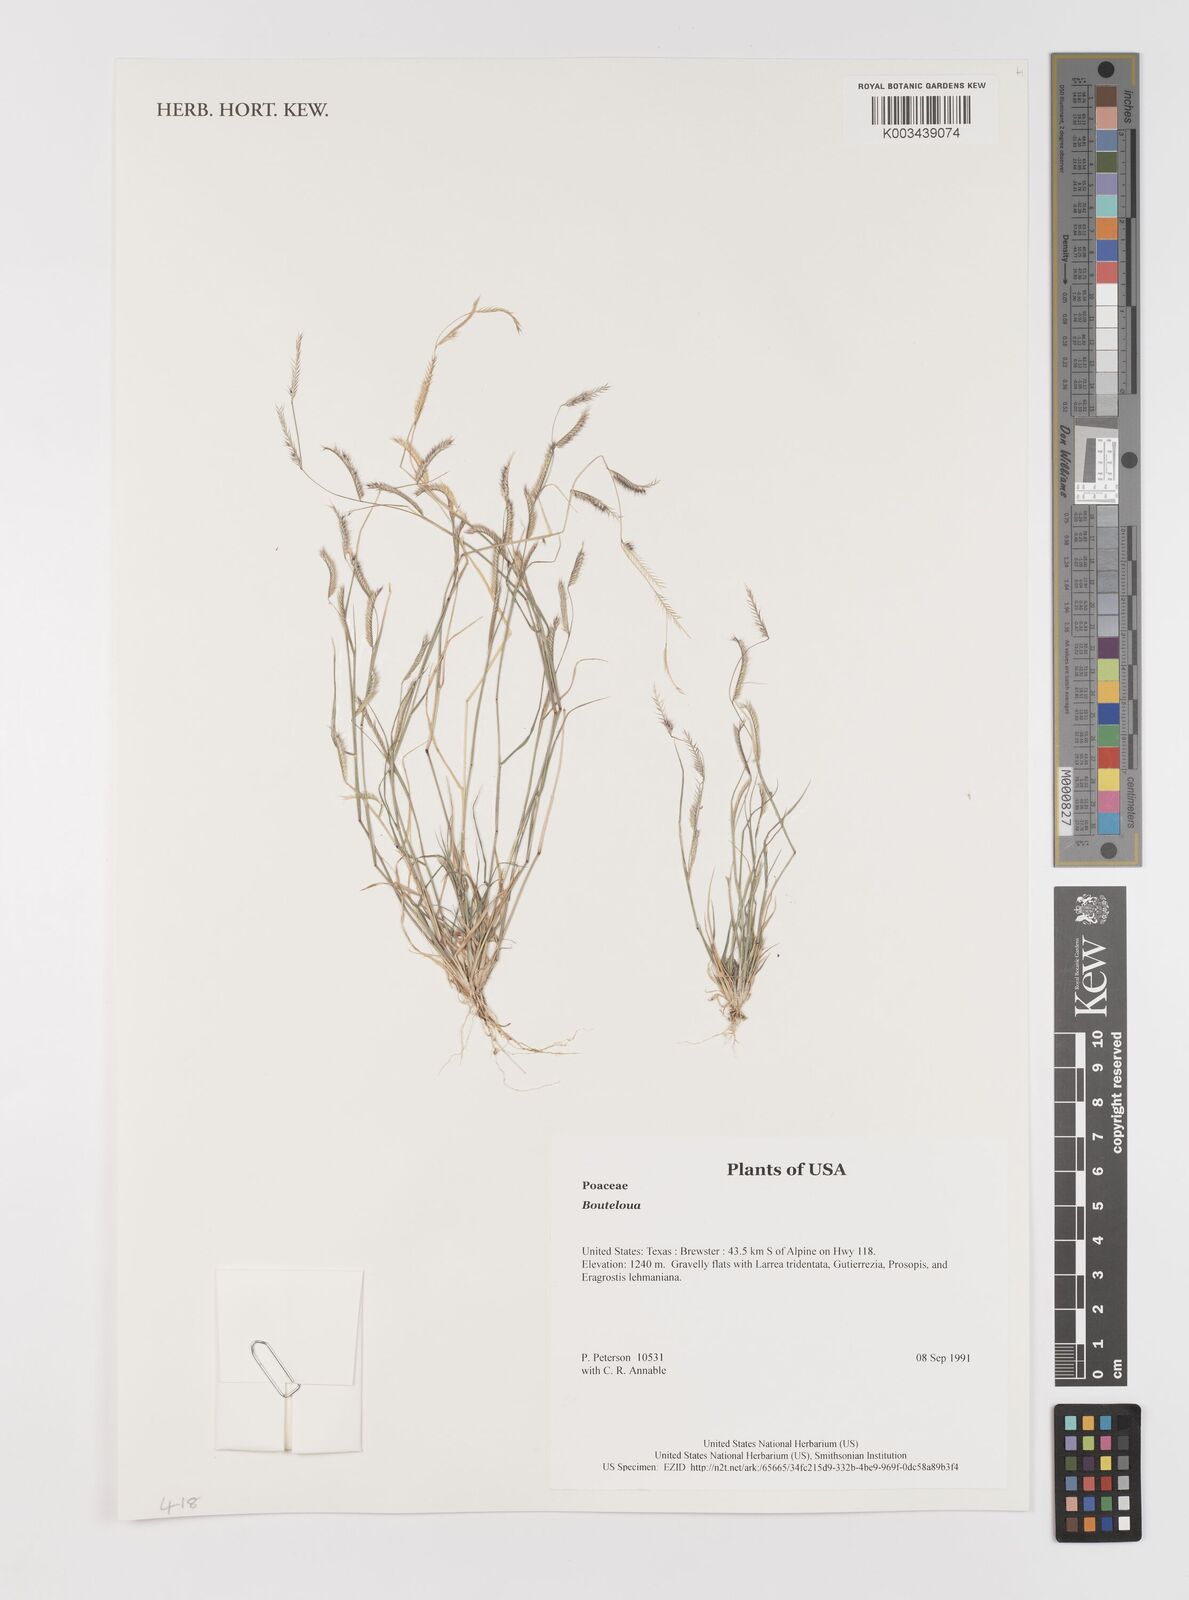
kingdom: Plantae
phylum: Tracheophyta
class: Liliopsida
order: Poales
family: Poaceae
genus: Bouteloua
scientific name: Bouteloua
